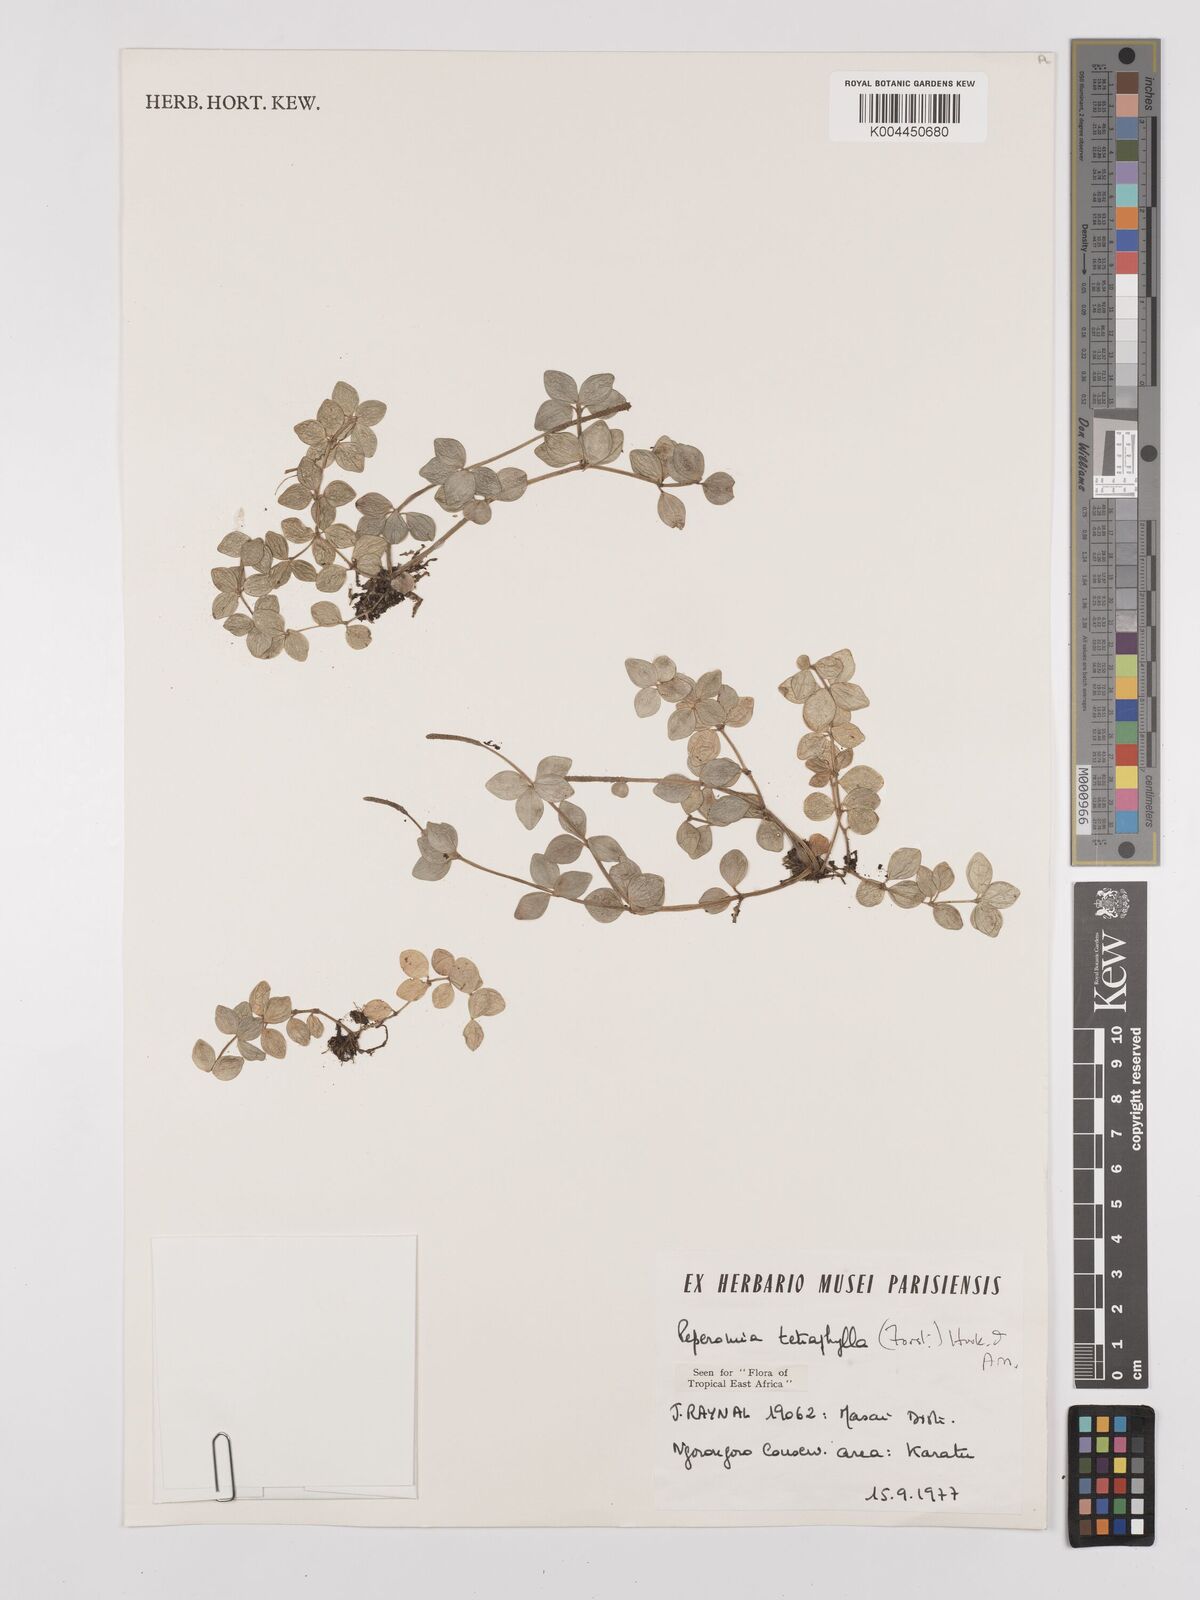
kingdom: Plantae
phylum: Tracheophyta
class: Magnoliopsida
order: Piperales
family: Piperaceae
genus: Peperomia
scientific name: Peperomia tetraphylla
